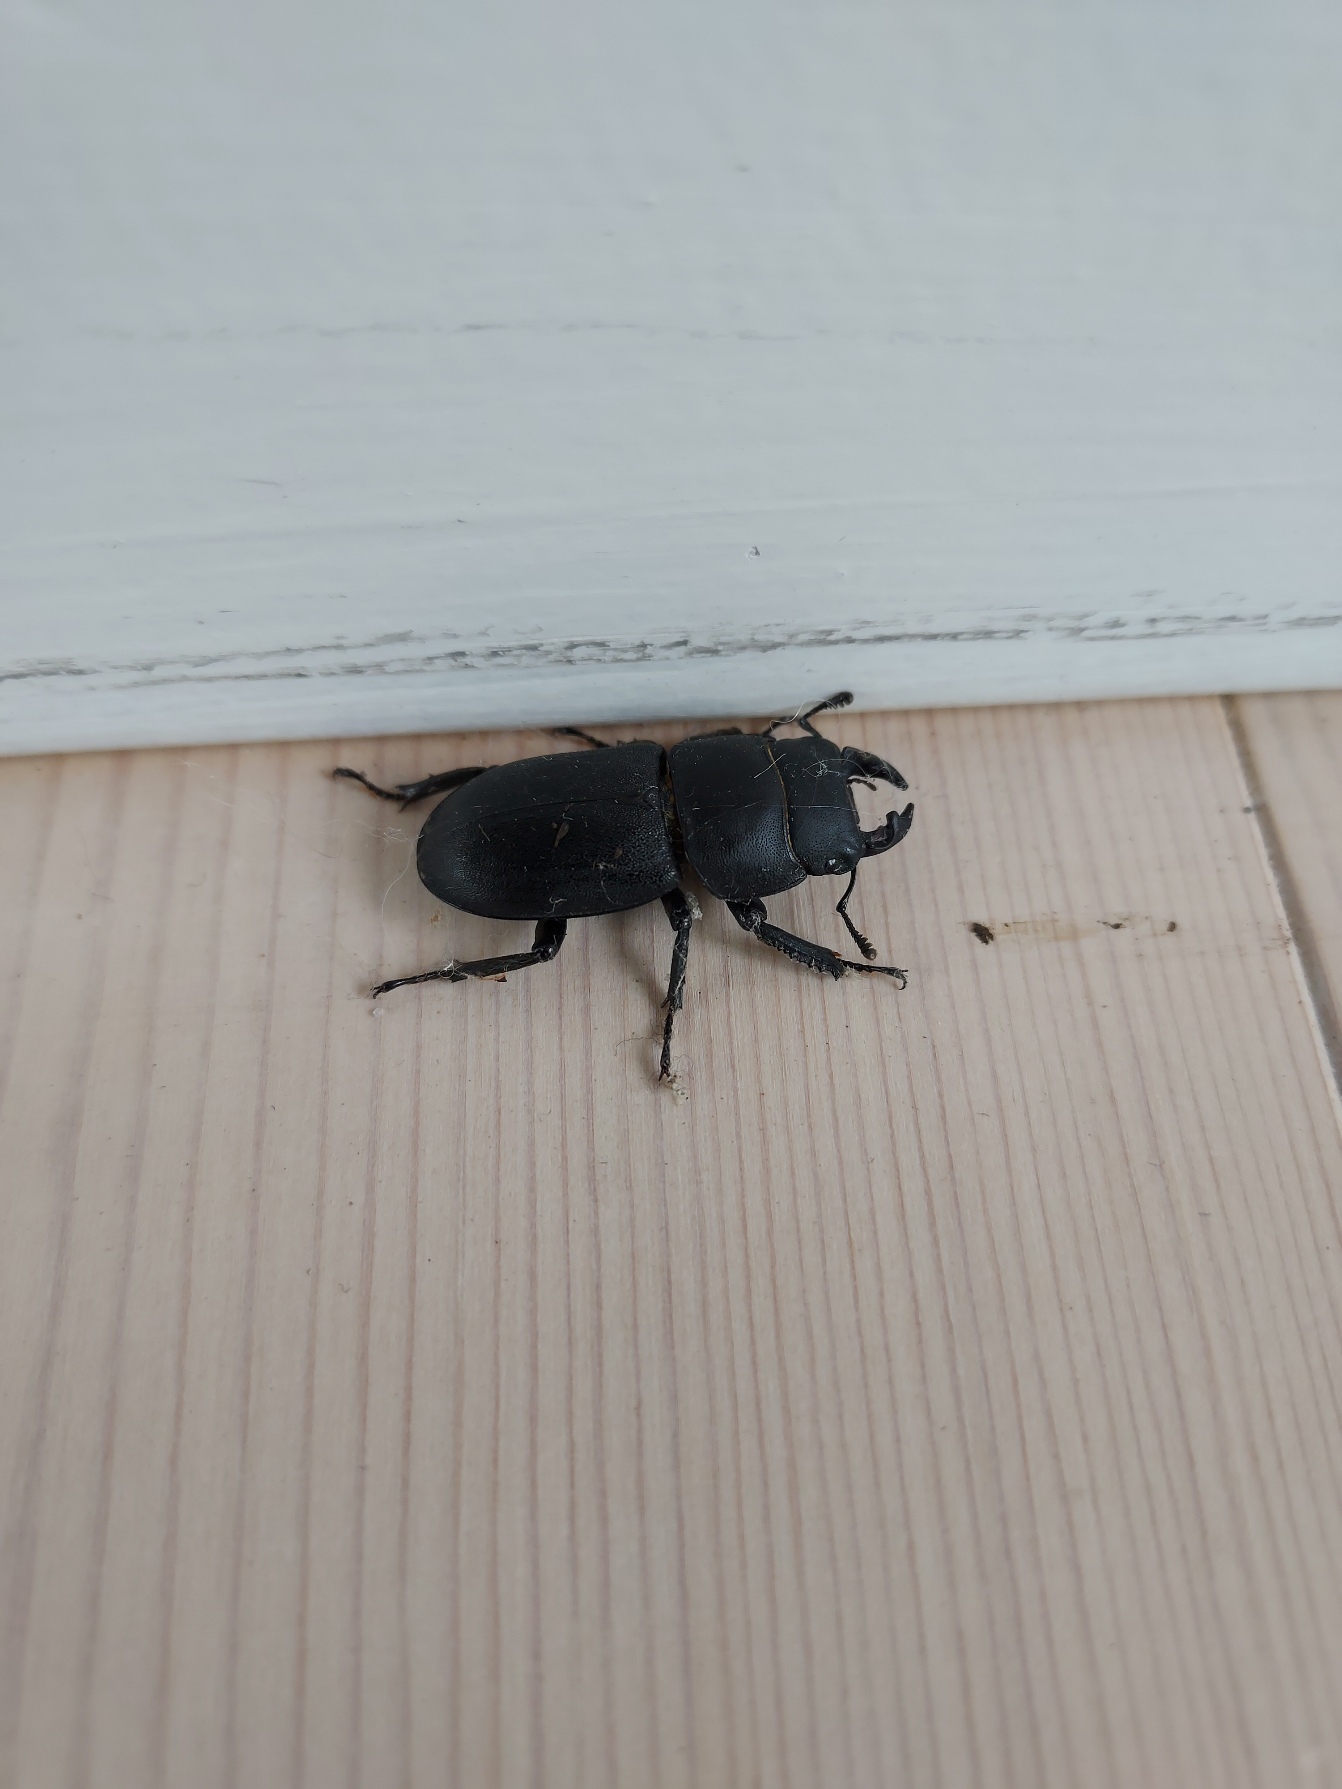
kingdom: Animalia
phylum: Arthropoda
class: Insecta
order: Coleoptera
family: Lucanidae
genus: Dorcus
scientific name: Dorcus parallelipipedus
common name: Bøghjort
